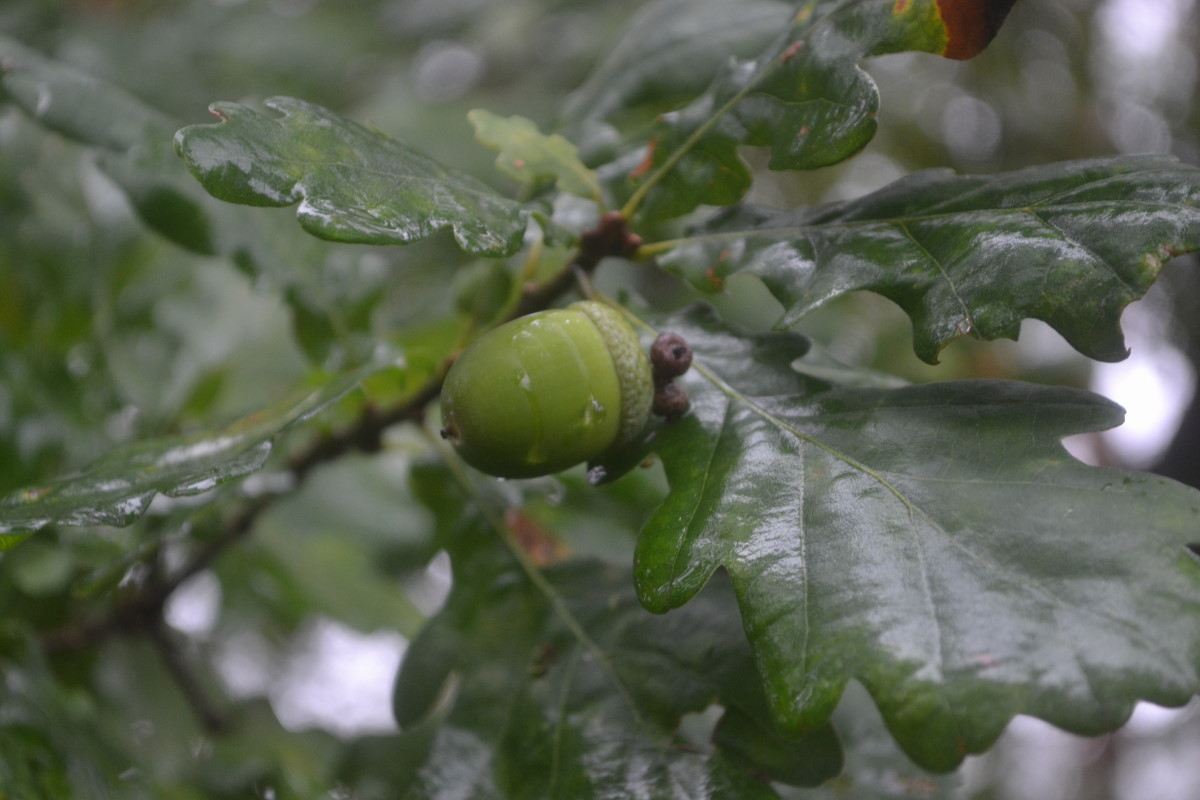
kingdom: Plantae
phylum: Tracheophyta
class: Magnoliopsida
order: Fagales
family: Fagaceae
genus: Quercus
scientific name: Quercus robur
